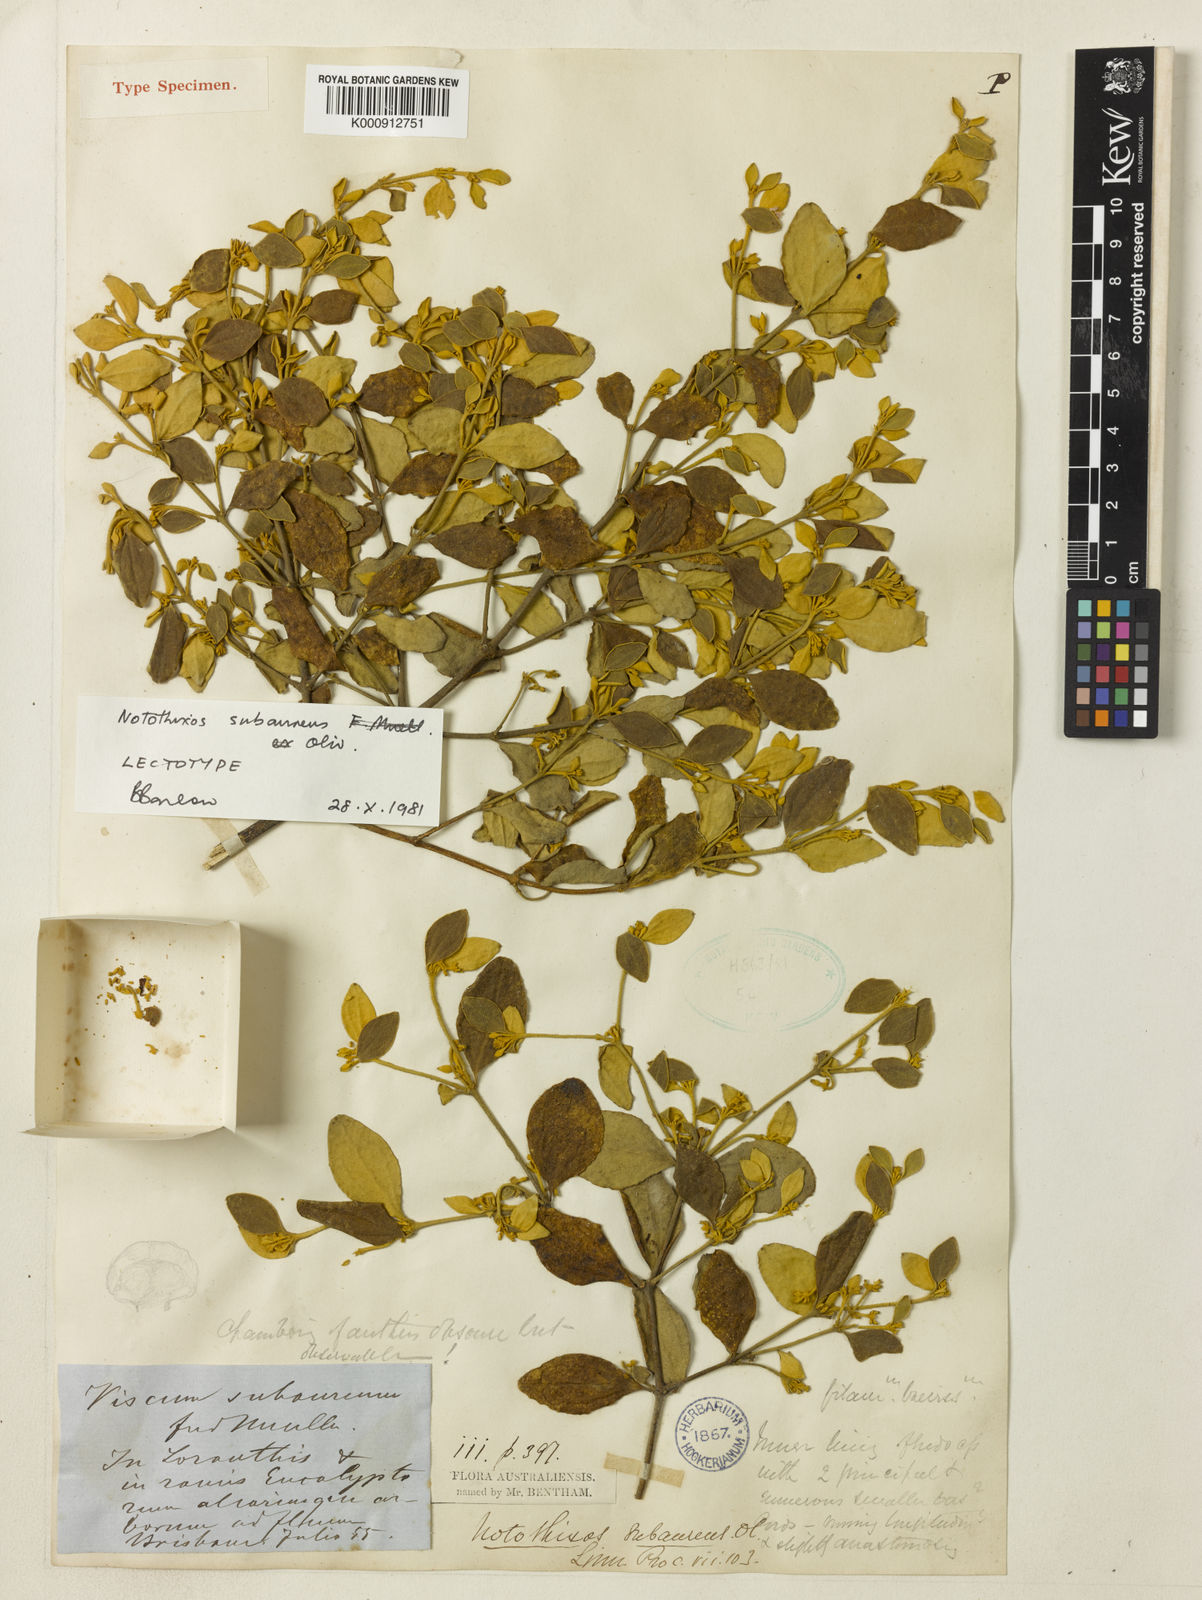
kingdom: Plantae
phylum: Tracheophyta
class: Magnoliopsida
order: Santalales
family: Viscaceae
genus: Notothixos
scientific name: Notothixos subaureus
